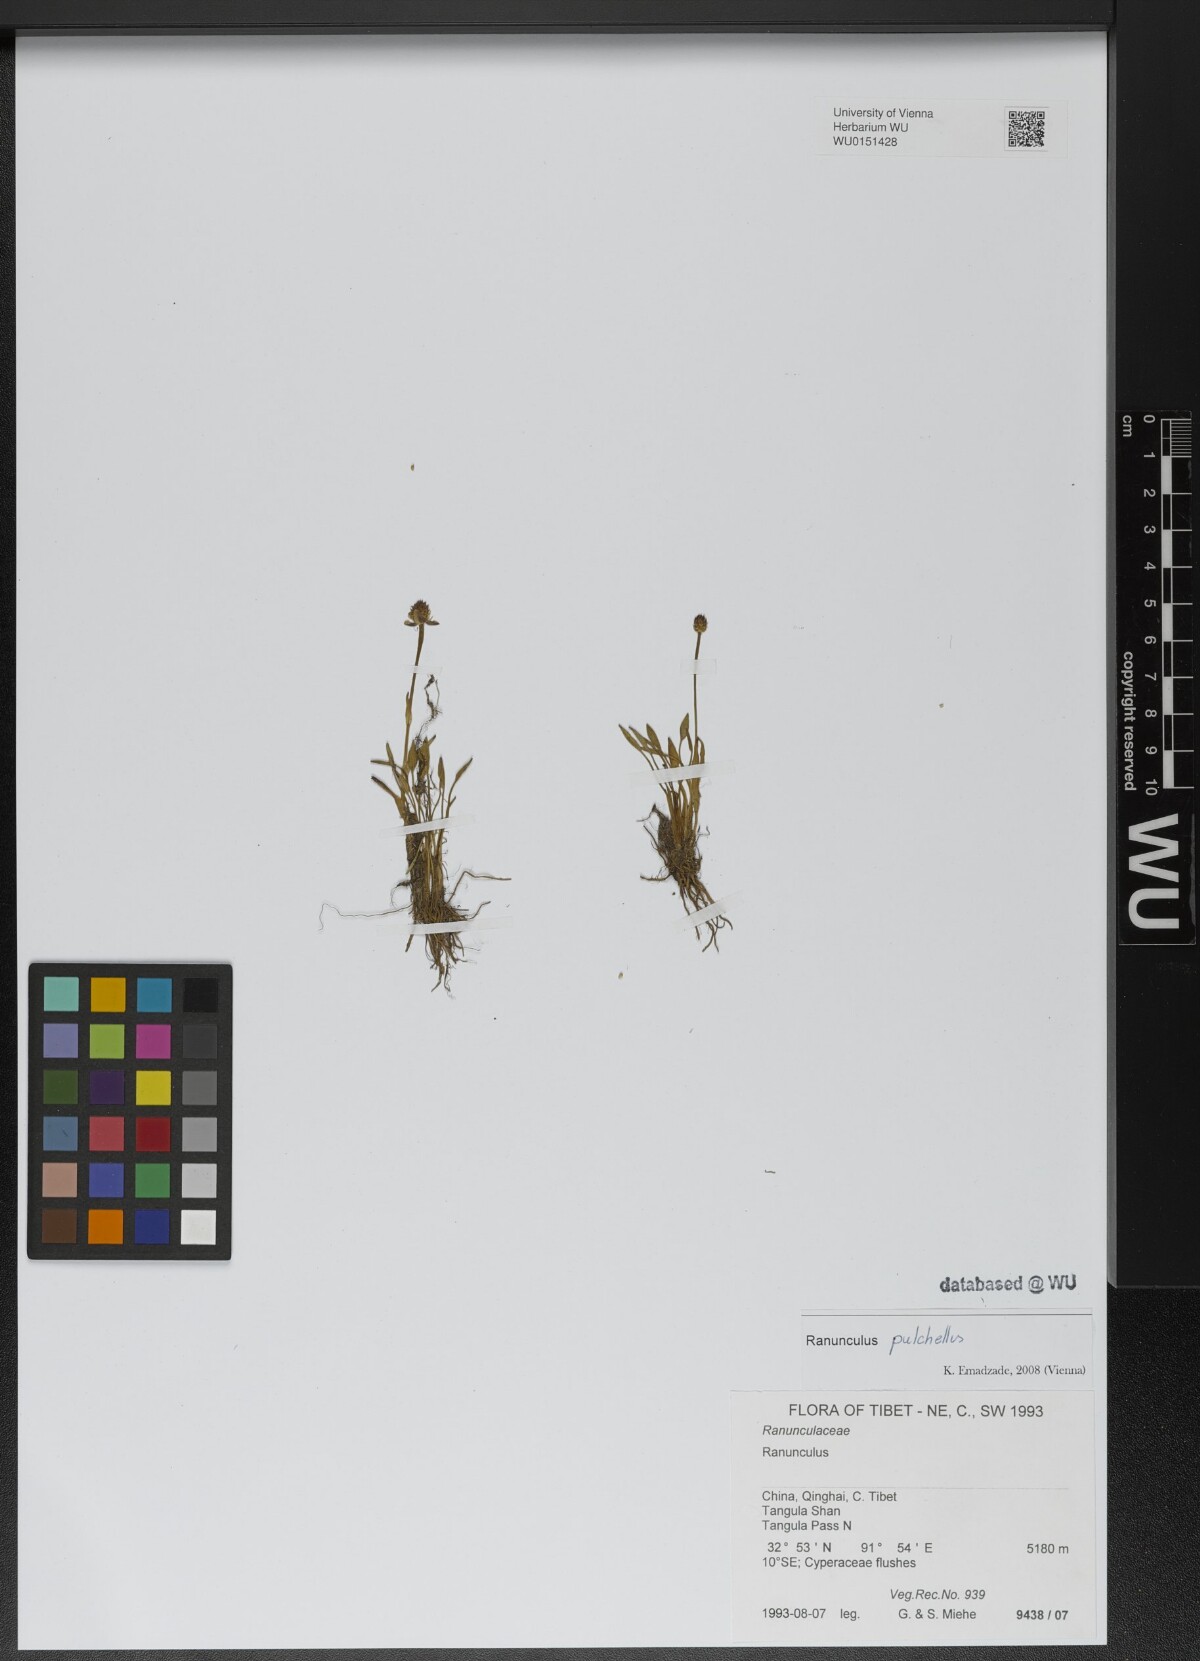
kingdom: Plantae
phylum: Tracheophyta
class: Magnoliopsida
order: Ranunculales
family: Ranunculaceae
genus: Ranunculus
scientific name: Ranunculus pulchellus
